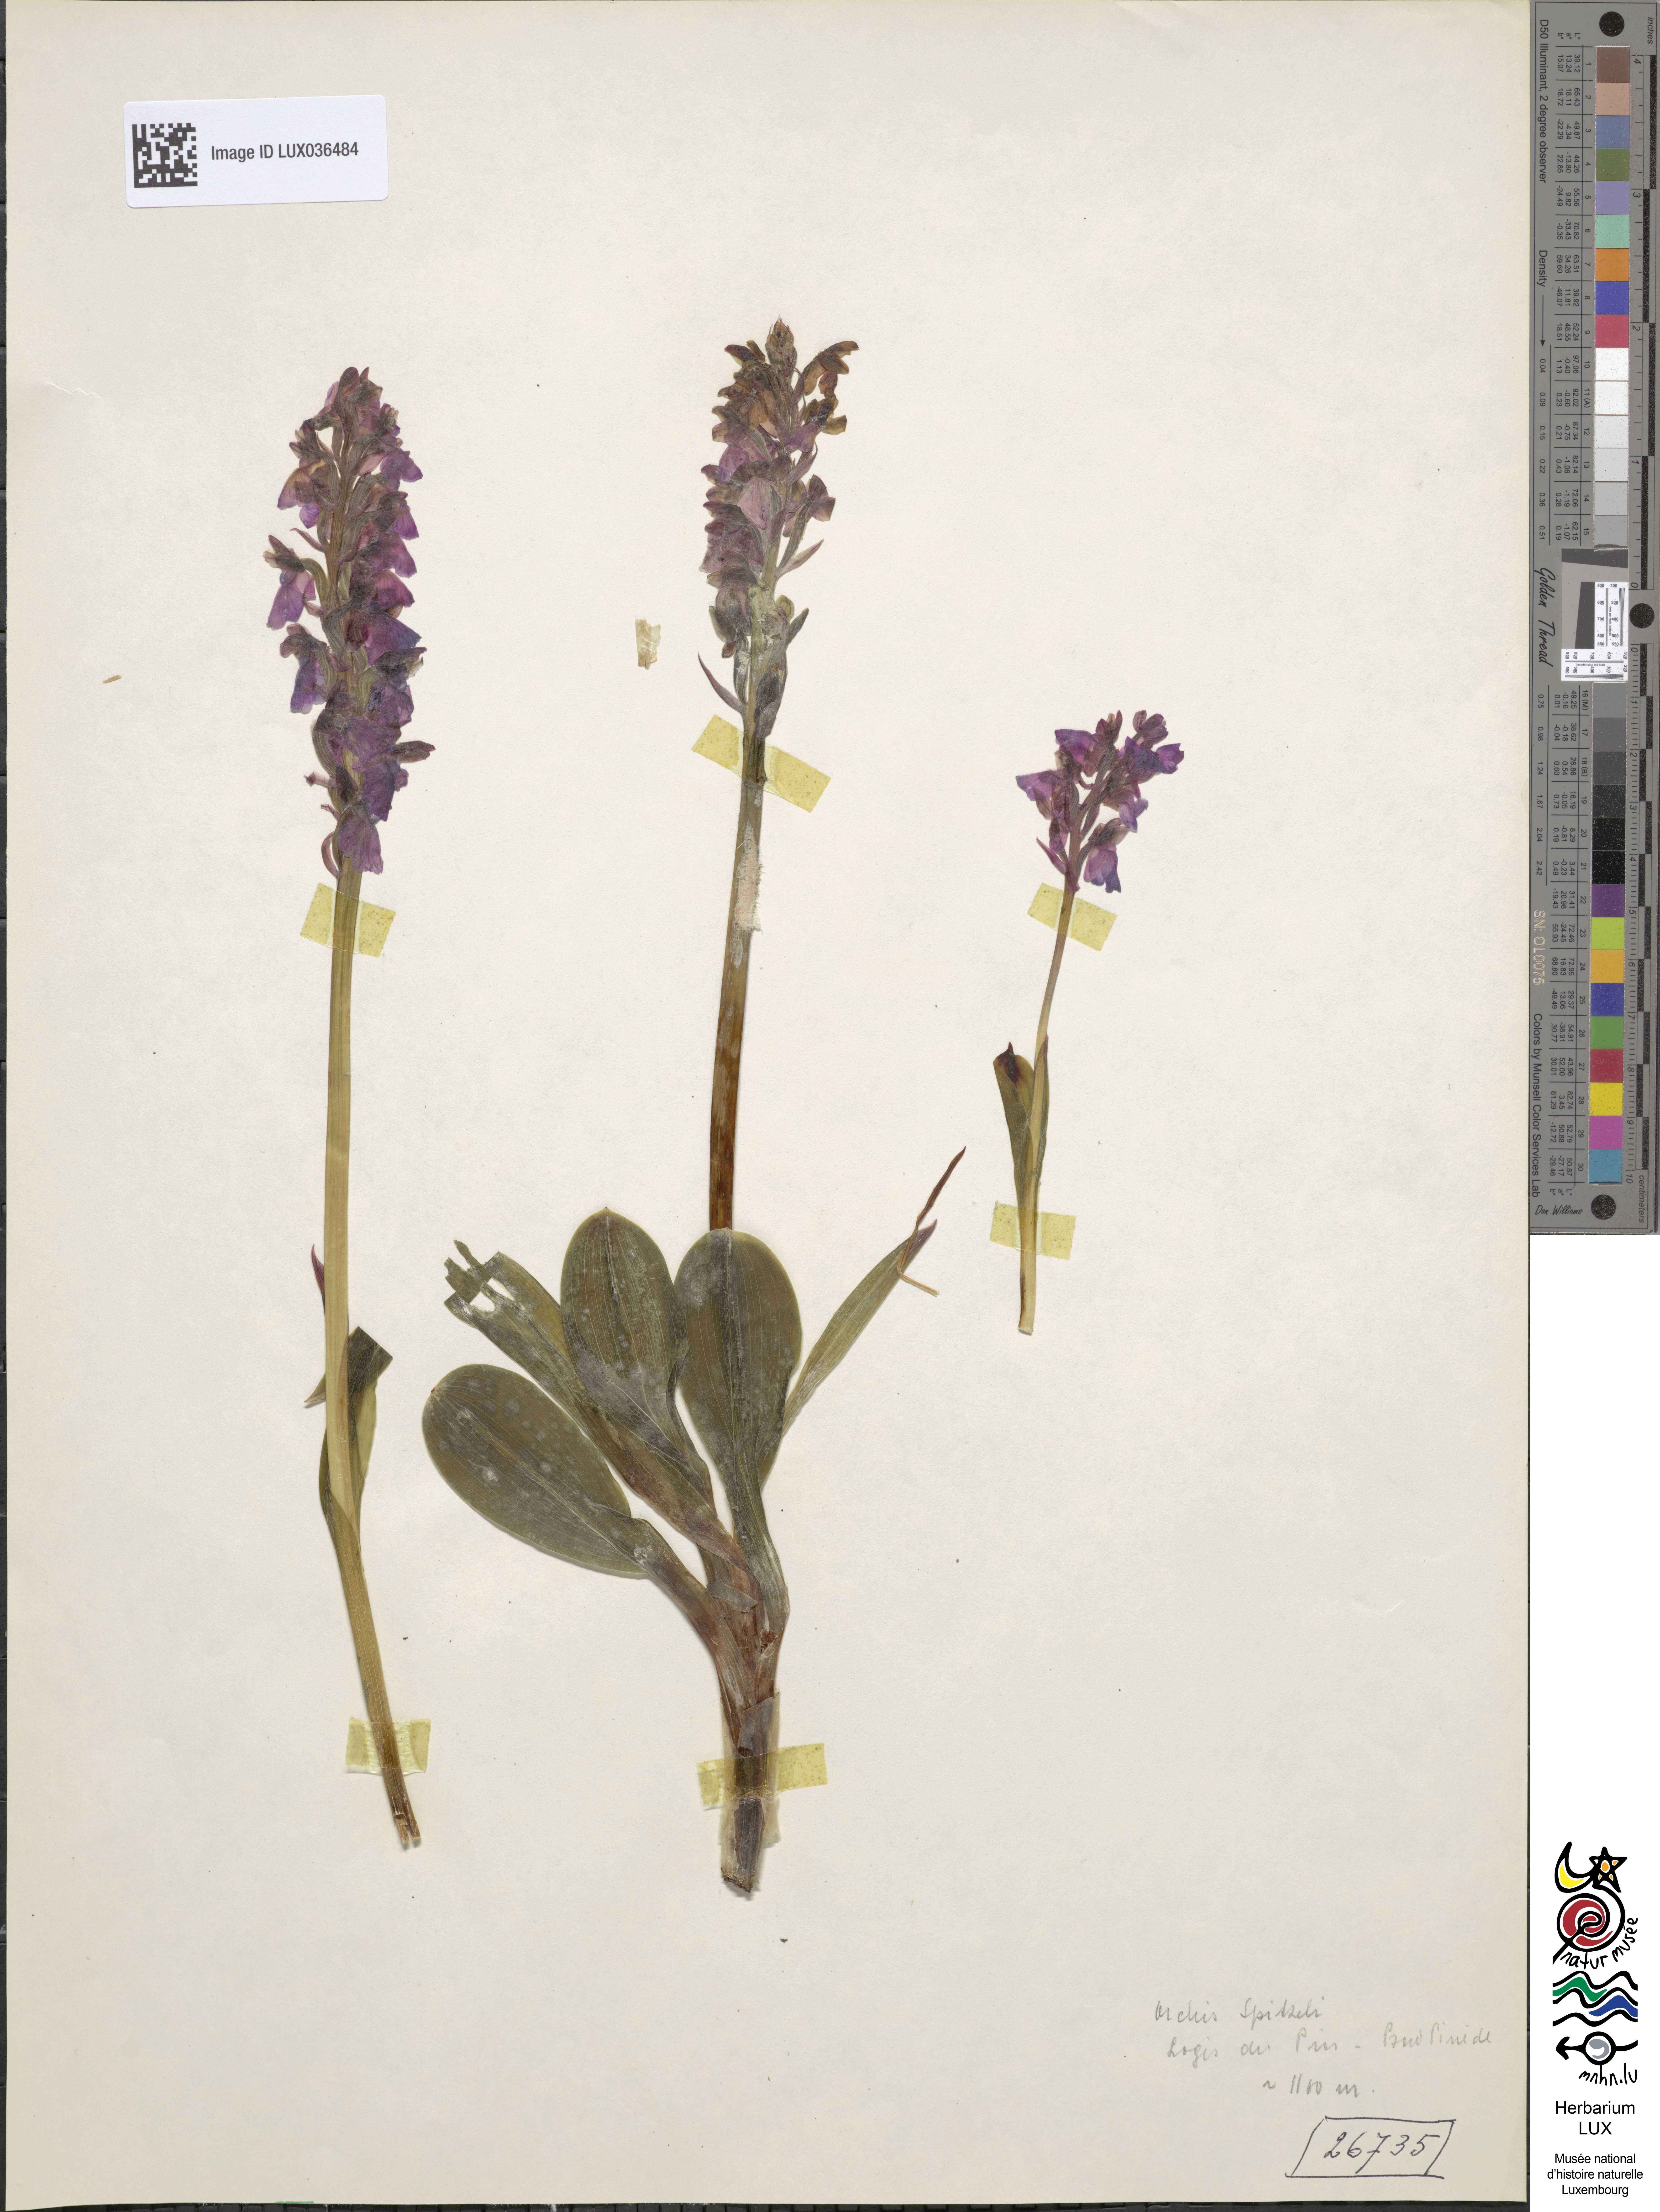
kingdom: Plantae
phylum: Tracheophyta
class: Liliopsida
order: Asparagales
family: Orchidaceae
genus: Orchis
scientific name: Orchis spitzelii
